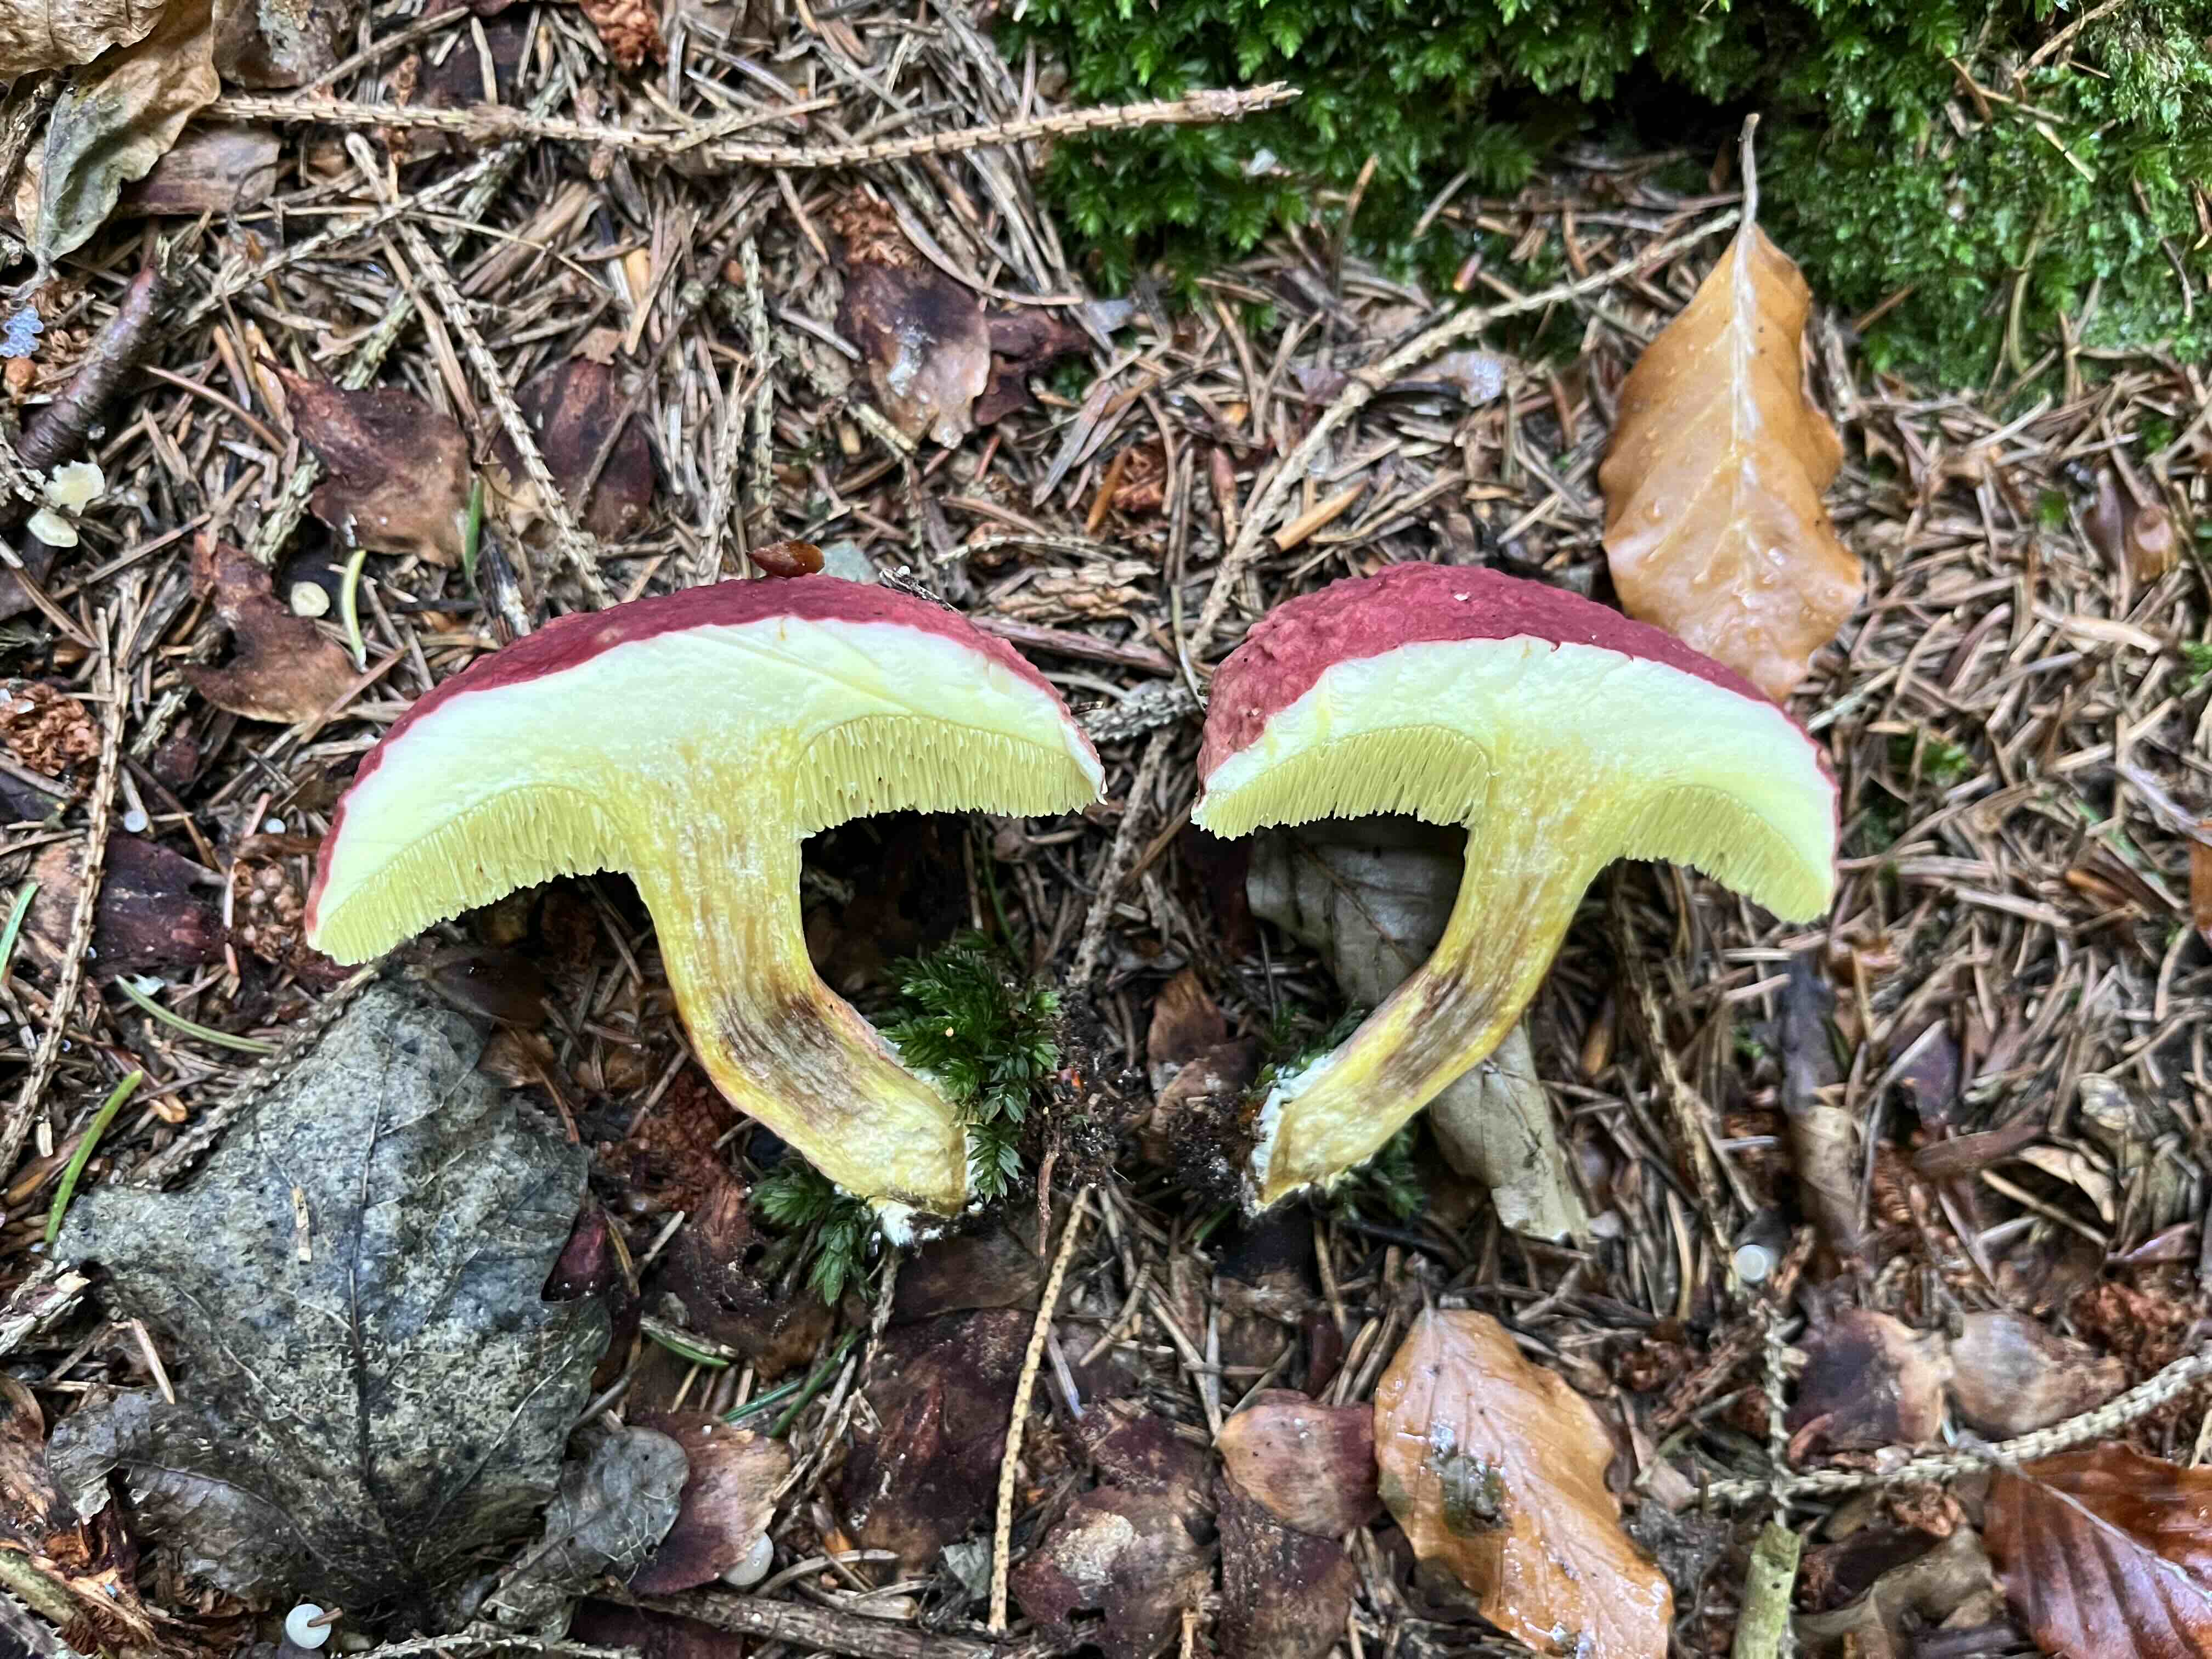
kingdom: Fungi
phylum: Basidiomycota
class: Agaricomycetes
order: Boletales
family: Boletaceae
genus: Hortiboletus
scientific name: Hortiboletus rubellus
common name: blodrød rørhat
